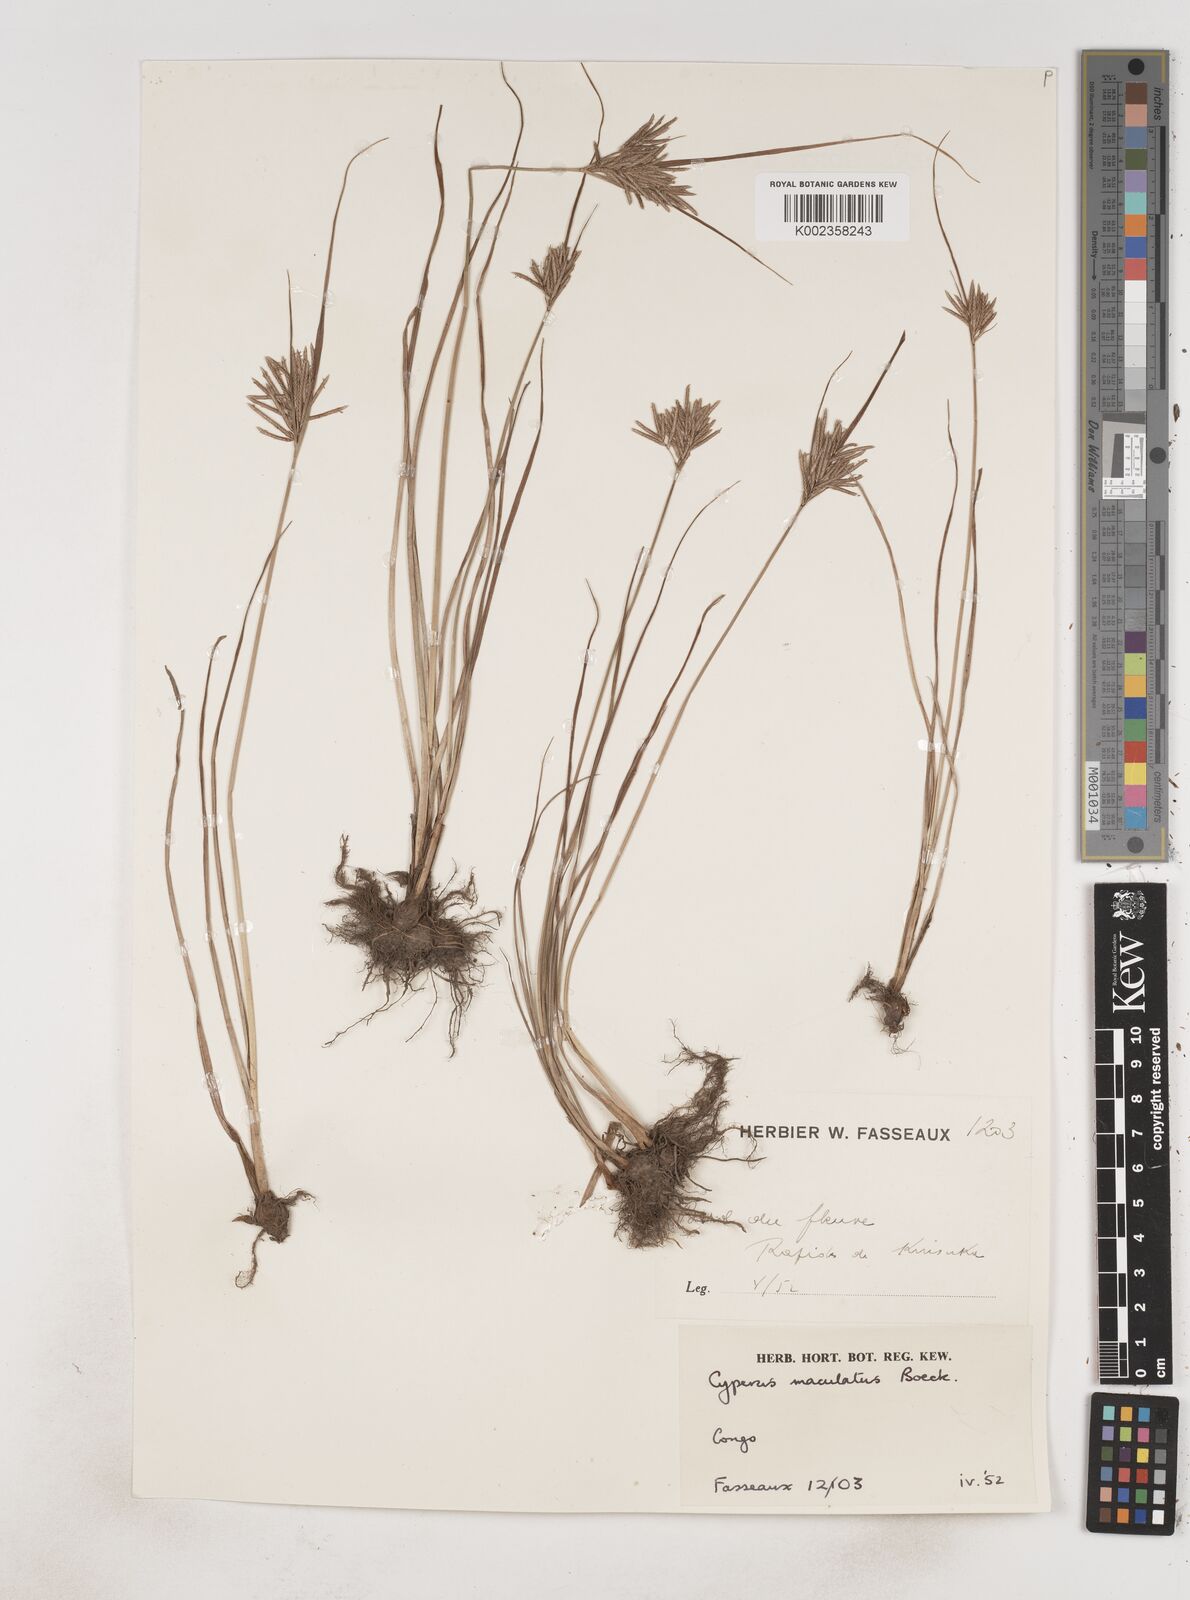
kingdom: Plantae
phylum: Tracheophyta
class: Liliopsida
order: Poales
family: Cyperaceae
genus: Cyperus
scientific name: Cyperus maculatus
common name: Maculated sedge
